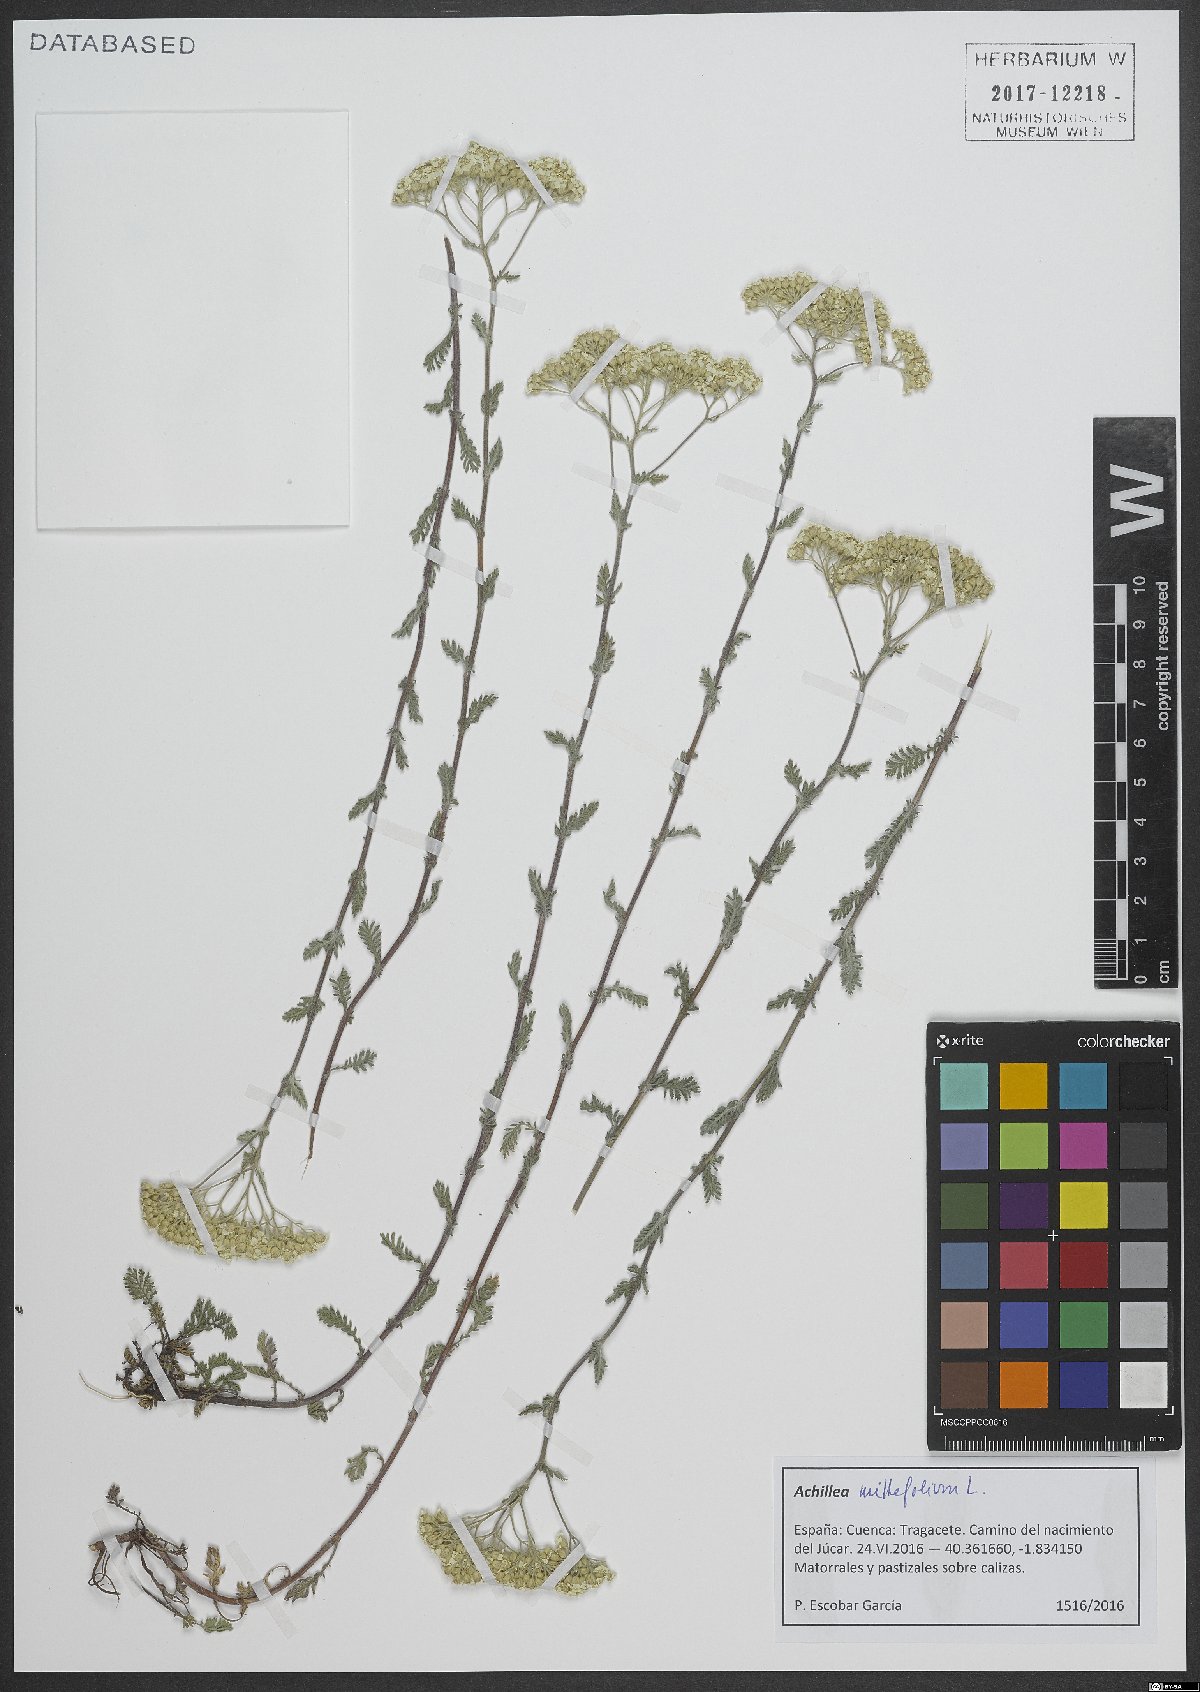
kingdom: Plantae
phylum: Tracheophyta
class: Magnoliopsida
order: Asterales
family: Asteraceae
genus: Achillea
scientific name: Achillea millefolium
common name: Yarrow
